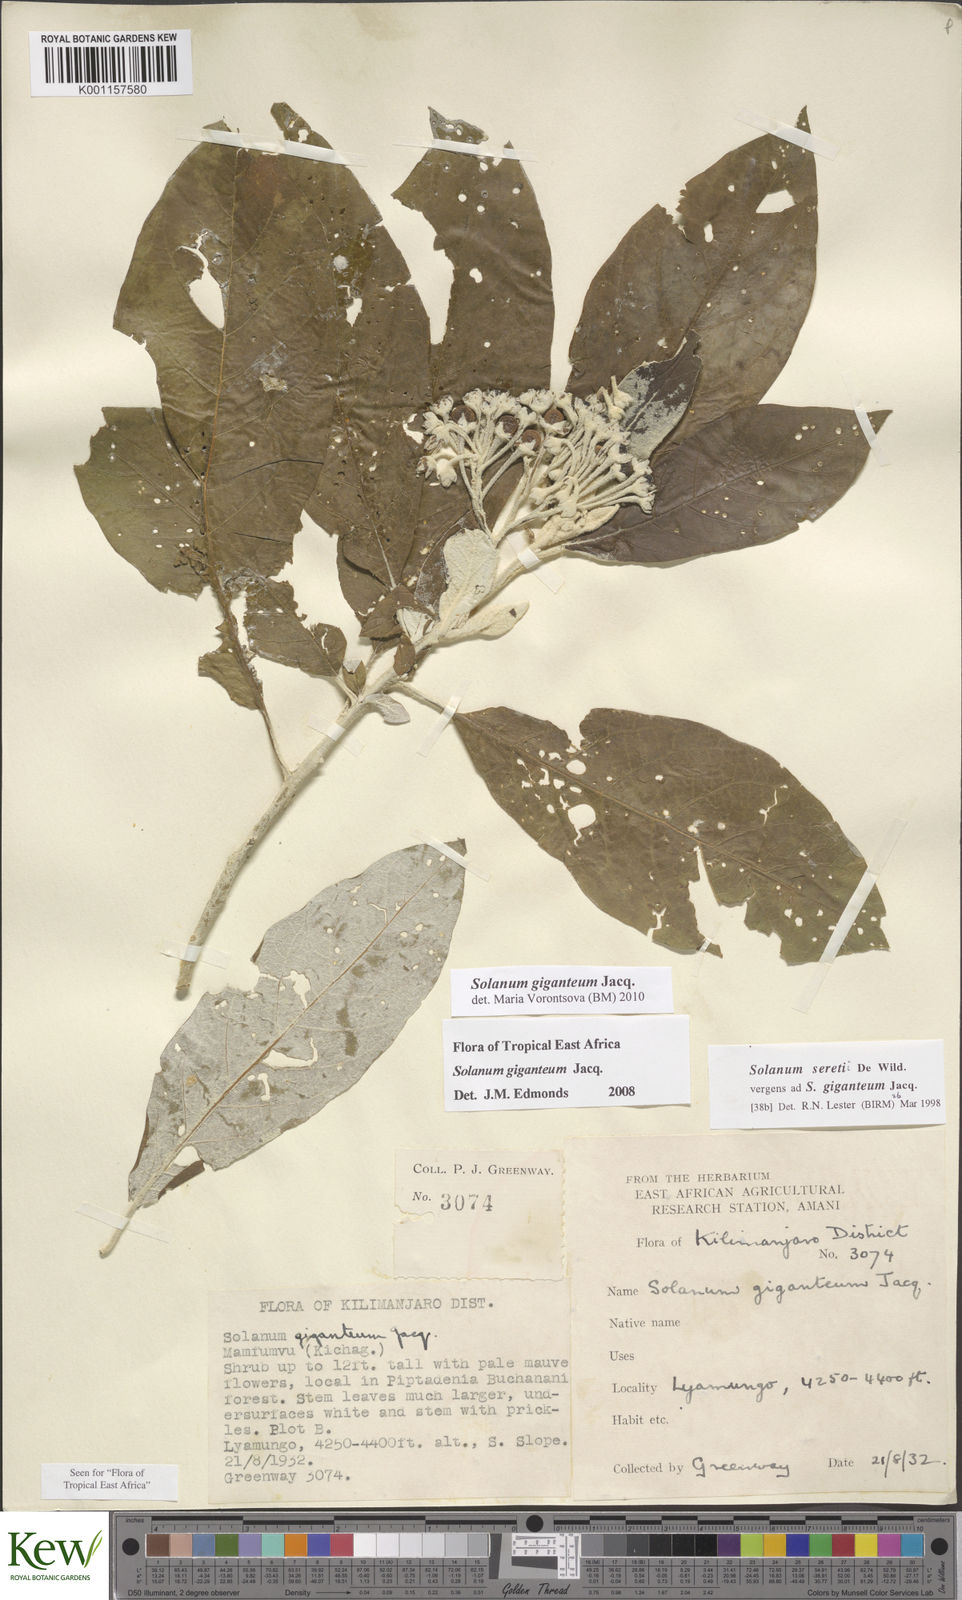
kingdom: Plantae
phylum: Tracheophyta
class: Magnoliopsida
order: Solanales
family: Solanaceae
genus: Solanum
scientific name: Solanum giganteum
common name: Healing-leaf-tree
